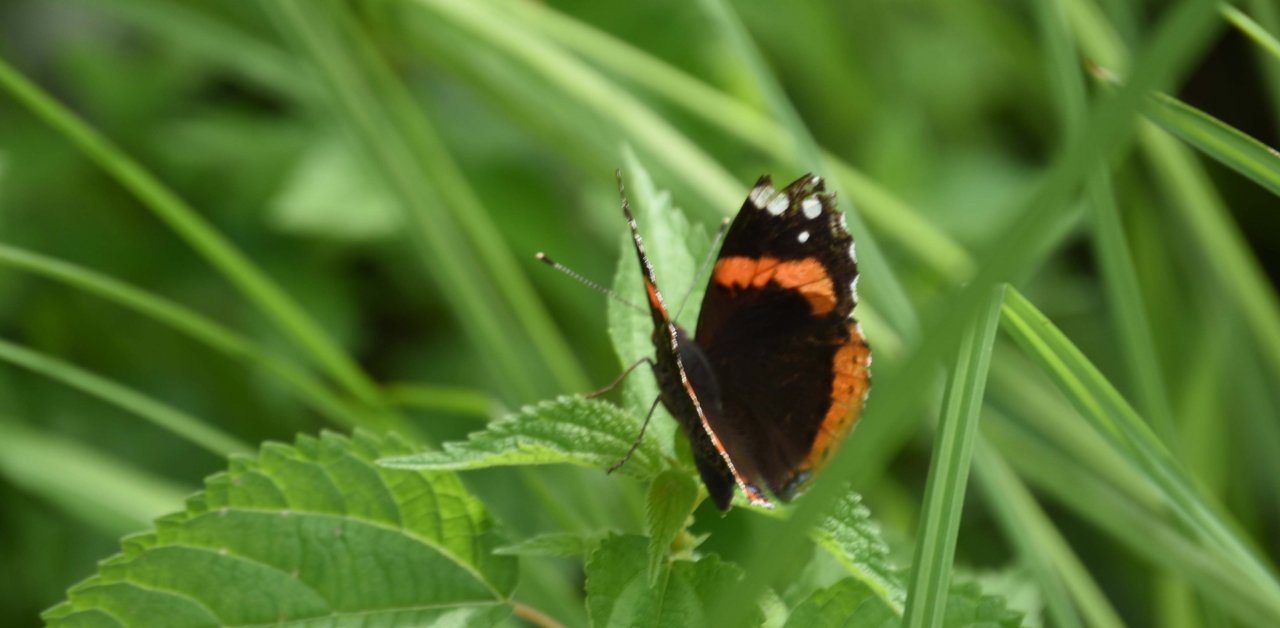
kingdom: Animalia
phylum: Arthropoda
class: Insecta
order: Lepidoptera
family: Nymphalidae
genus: Vanessa
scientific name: Vanessa atalanta
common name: Red Admiral
